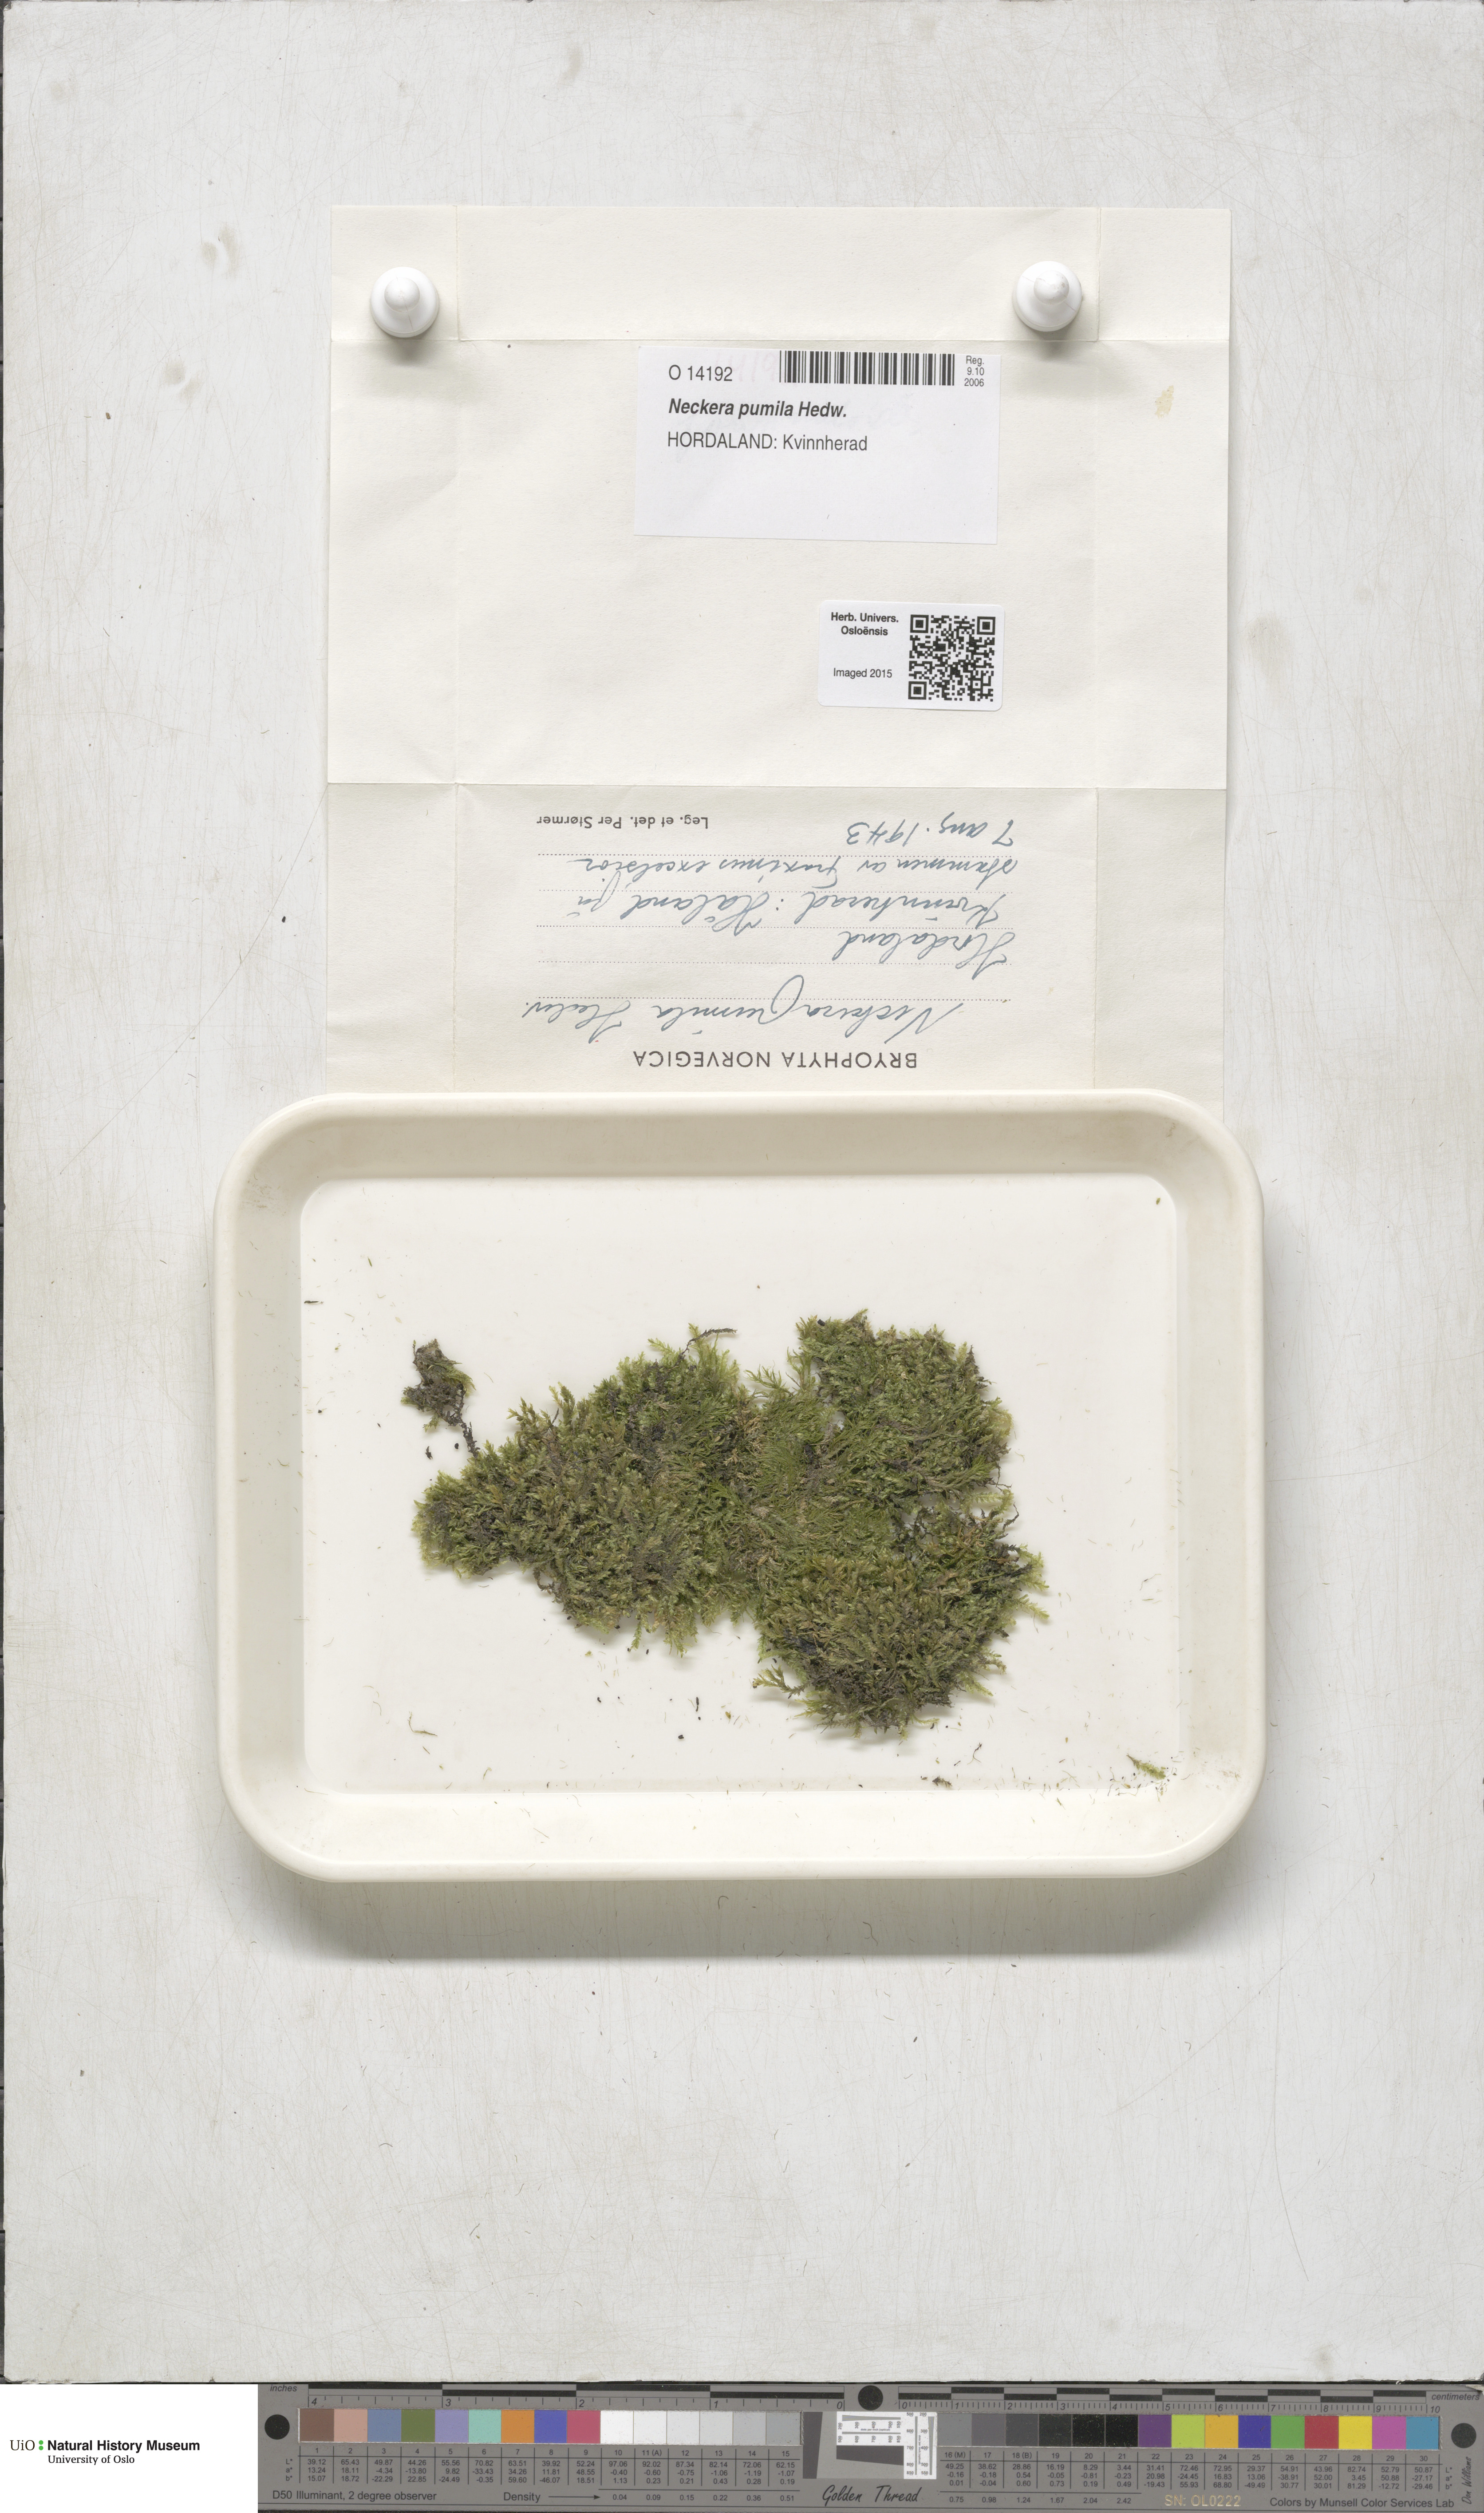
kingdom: Plantae
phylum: Bryophyta
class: Bryopsida
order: Hypnales
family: Neckeraceae
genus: Neckera
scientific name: Neckera pumila
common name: Dwarf neckera
